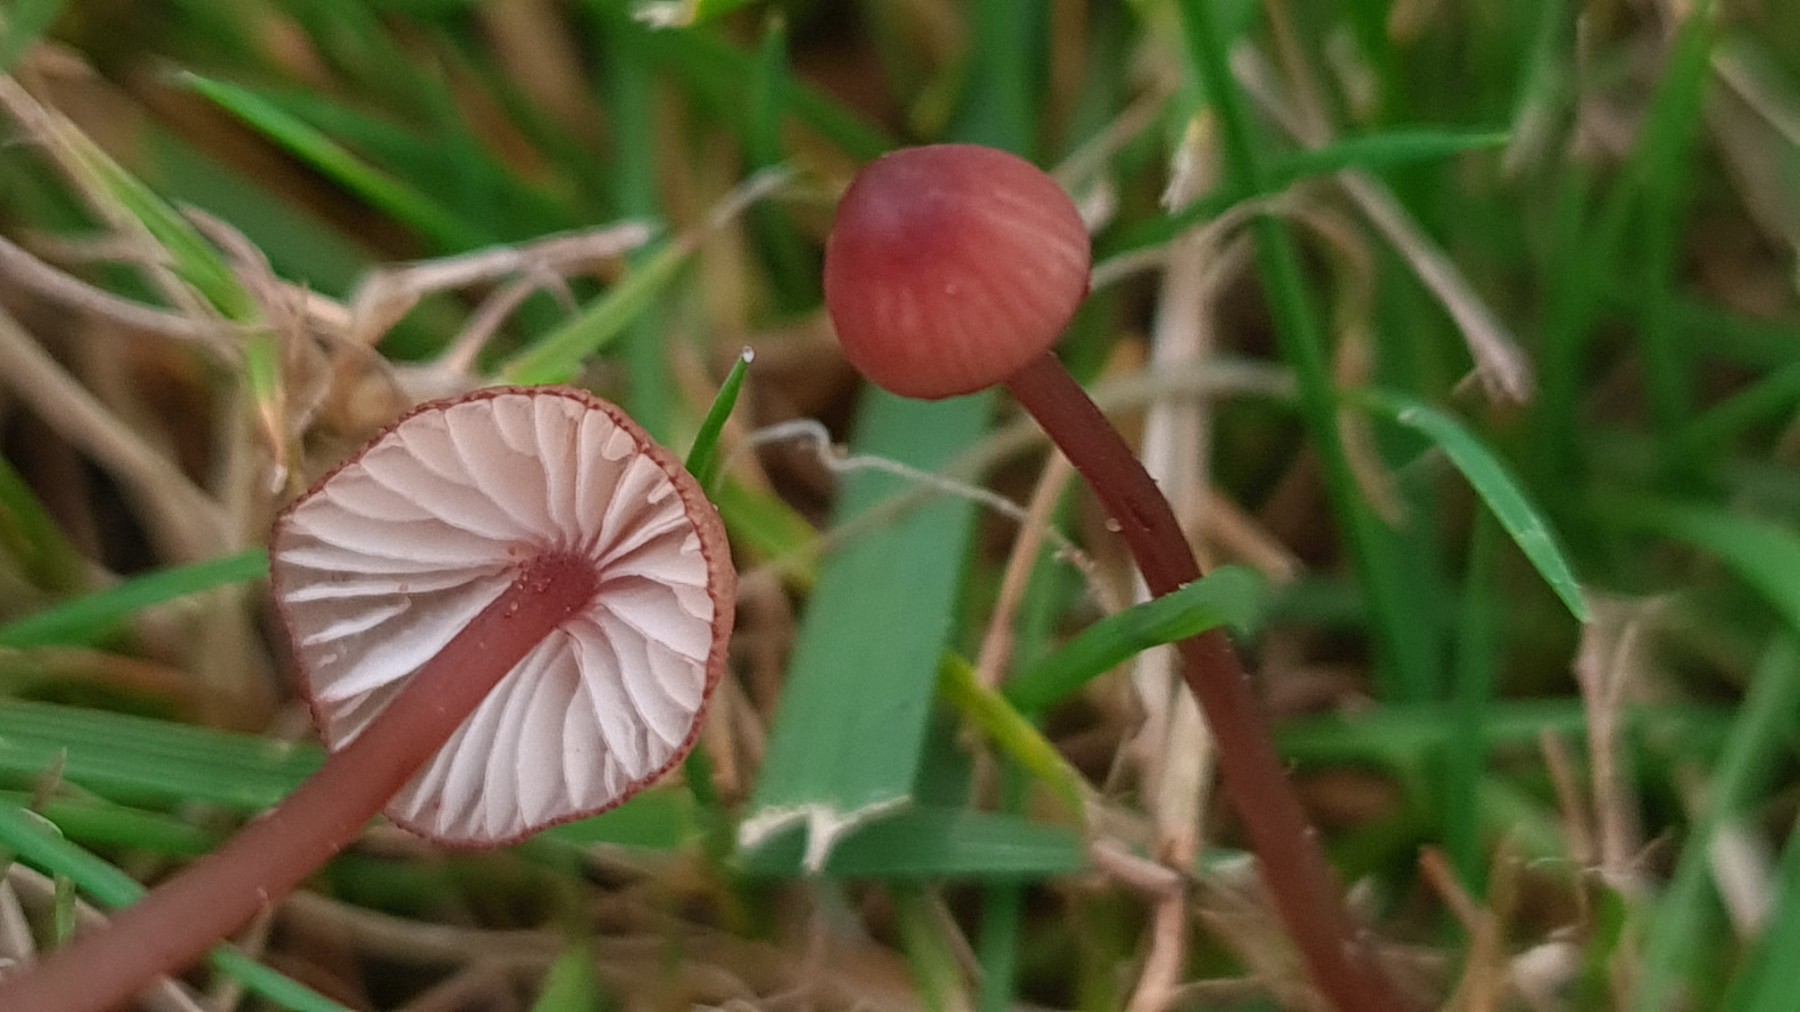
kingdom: Fungi
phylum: Basidiomycota
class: Agaricomycetes
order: Agaricales
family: Mycenaceae
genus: Mycena
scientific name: Mycena sanguinolenta
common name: rødmælket huesvamp
